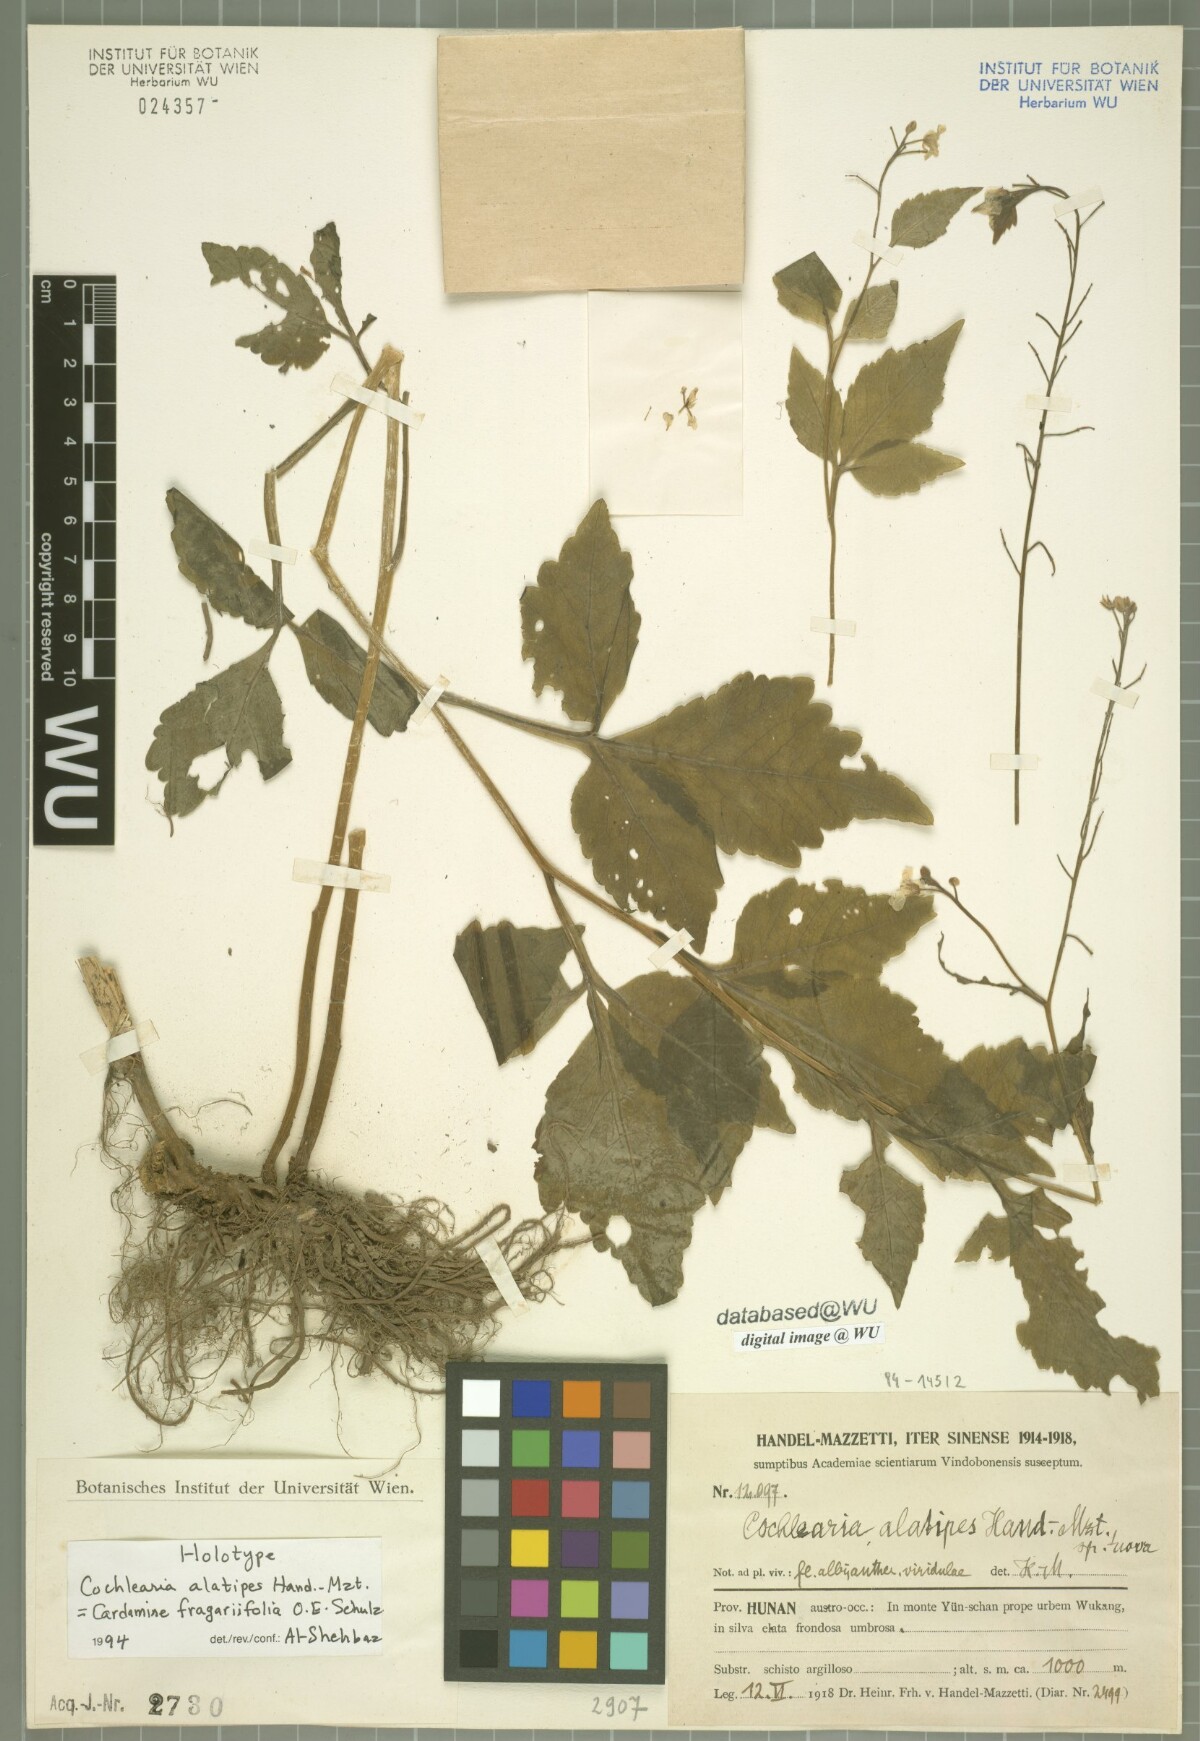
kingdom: Plantae
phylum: Tracheophyta
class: Magnoliopsida
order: Brassicales
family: Brassicaceae
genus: Cardamine
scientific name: Cardamine cheotaiyienii
